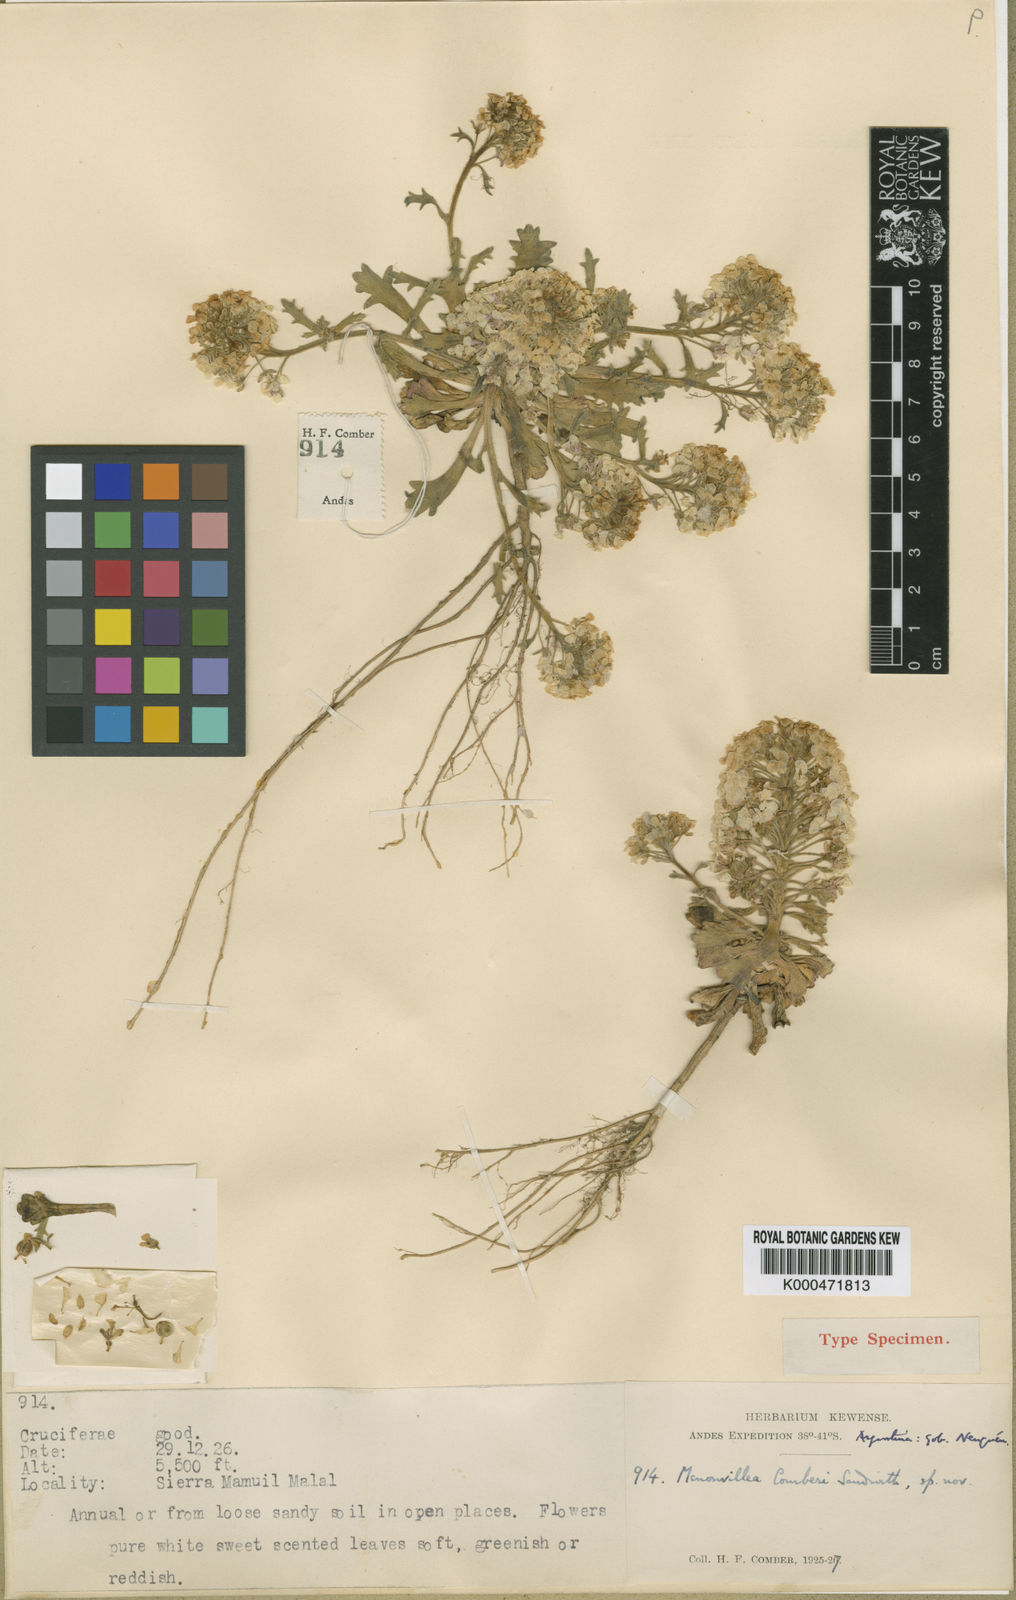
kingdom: Plantae
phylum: Tracheophyta
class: Magnoliopsida
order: Brassicales
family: Brassicaceae
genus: Menonvillea
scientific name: Menonvillea comberi
